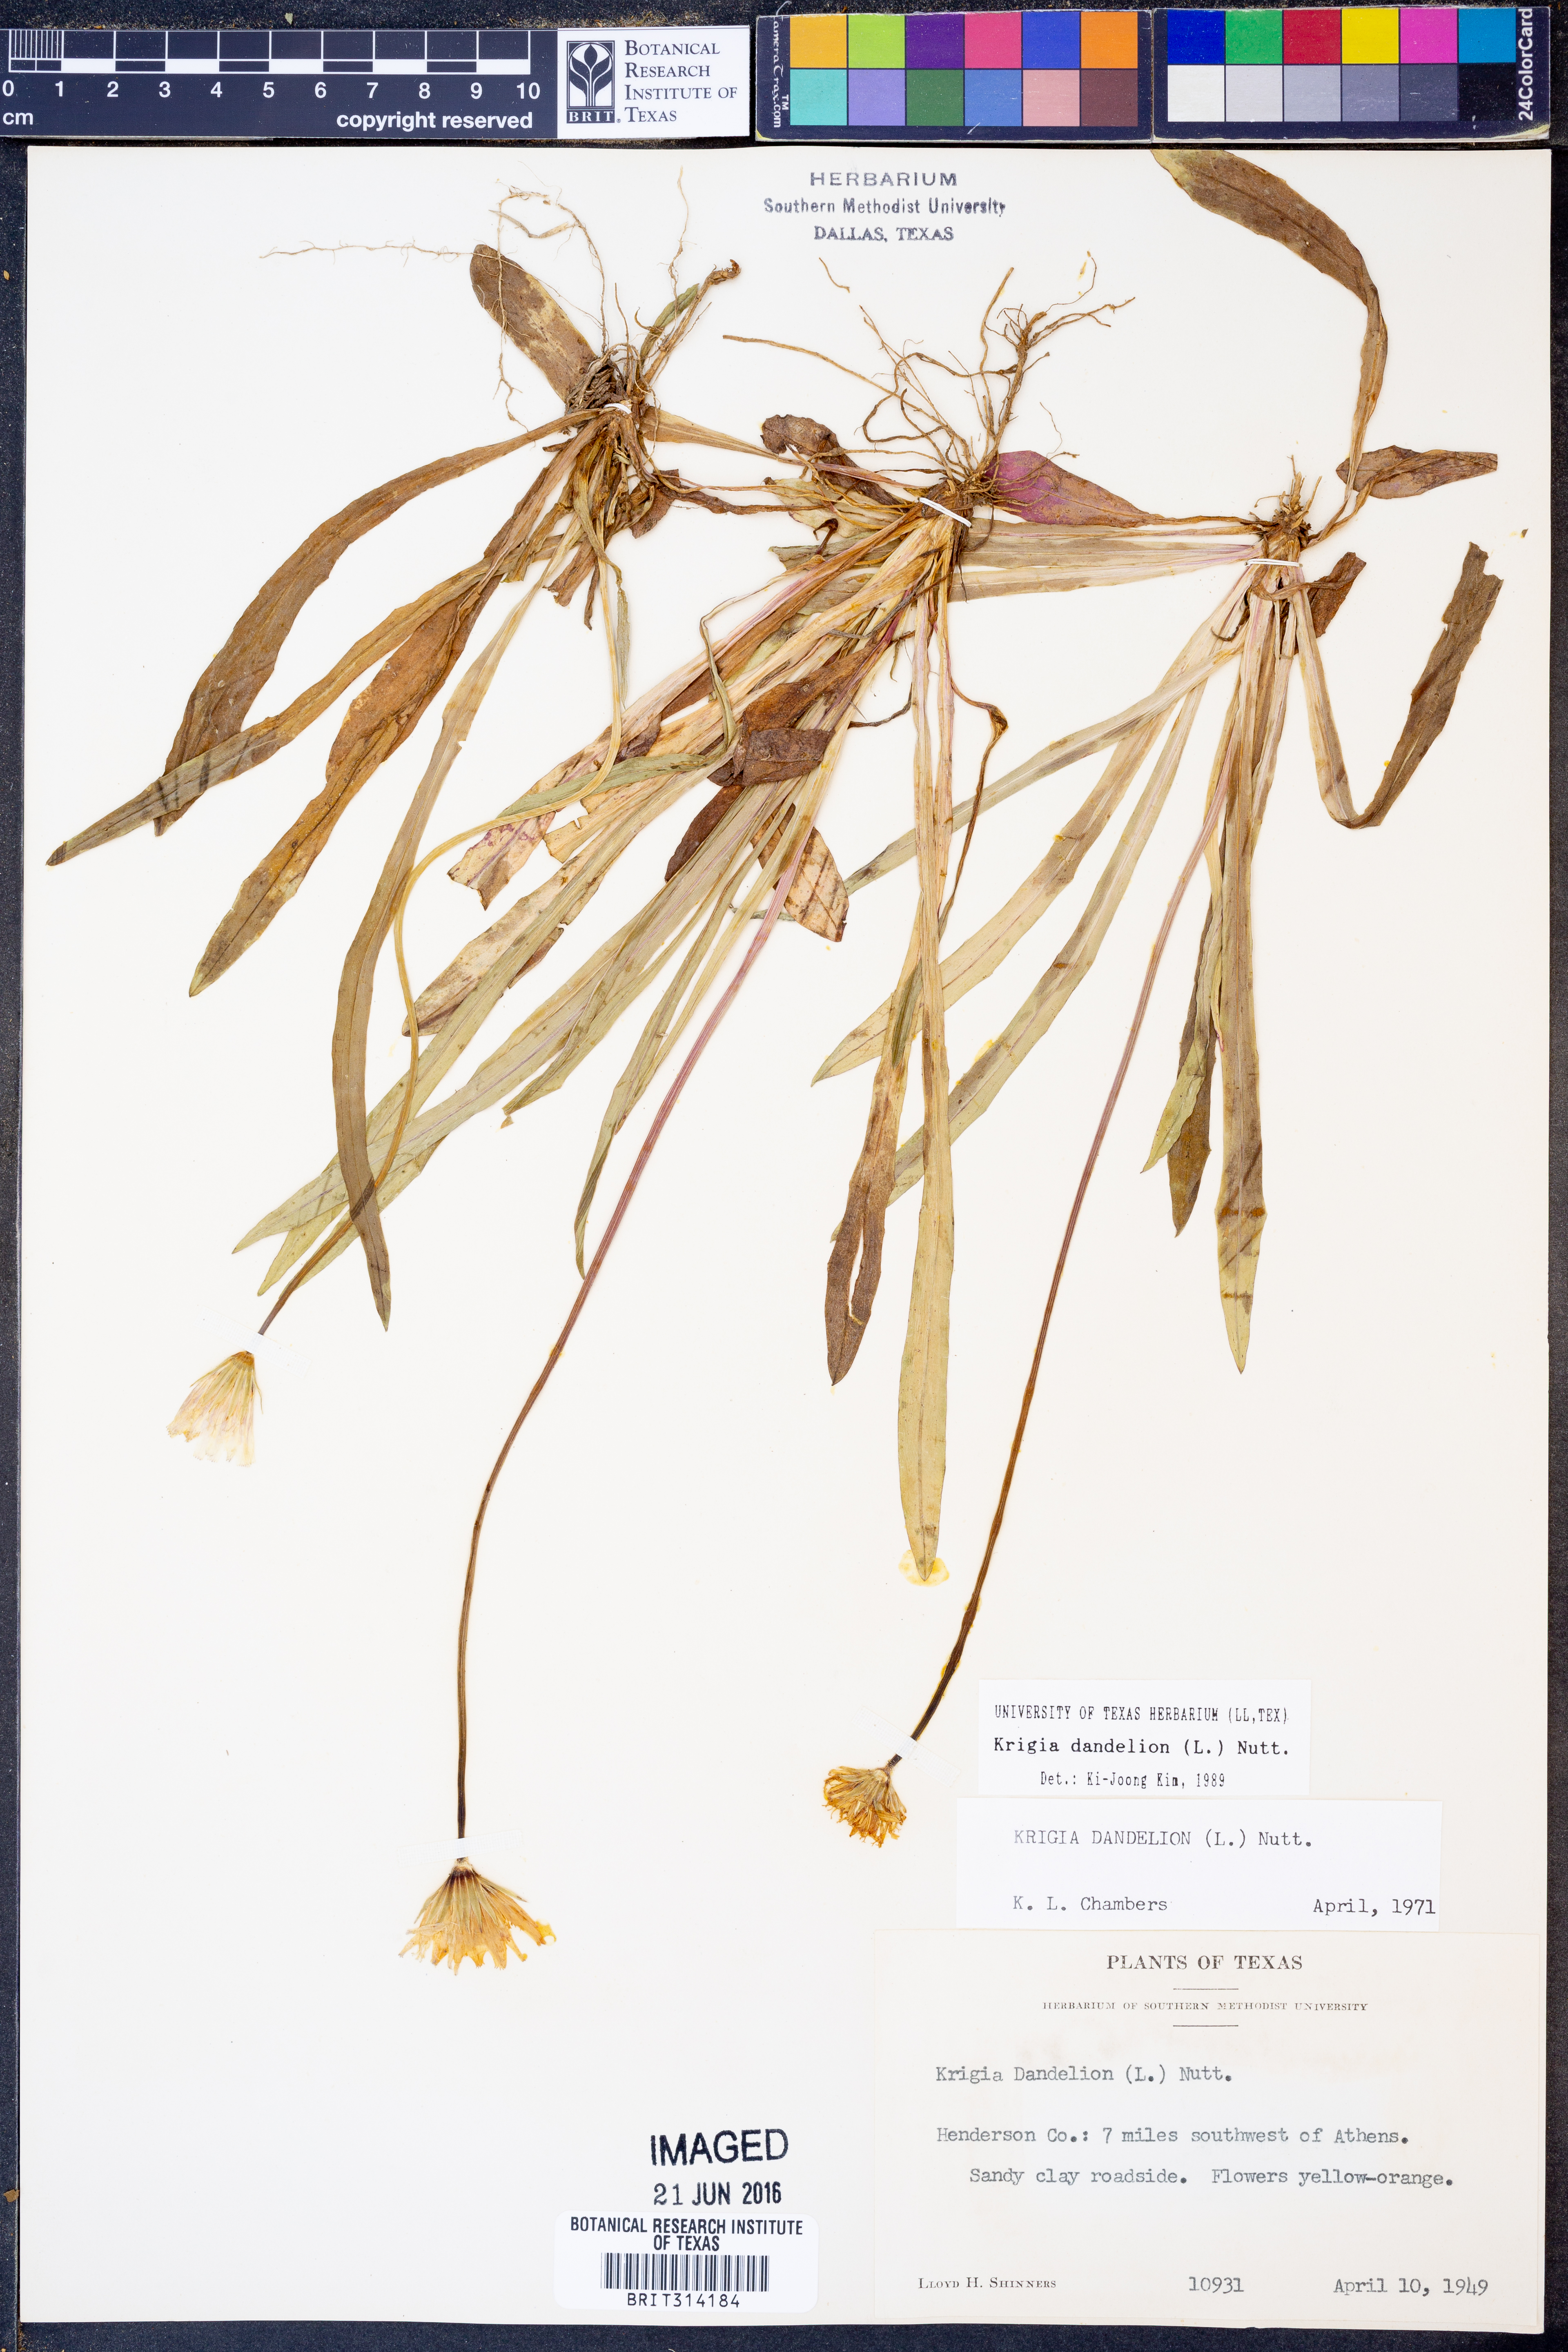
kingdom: Plantae
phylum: Tracheophyta
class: Magnoliopsida
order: Asterales
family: Asteraceae
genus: Krigia
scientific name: Krigia dandelion
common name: Colonial dwarf-dandelion
